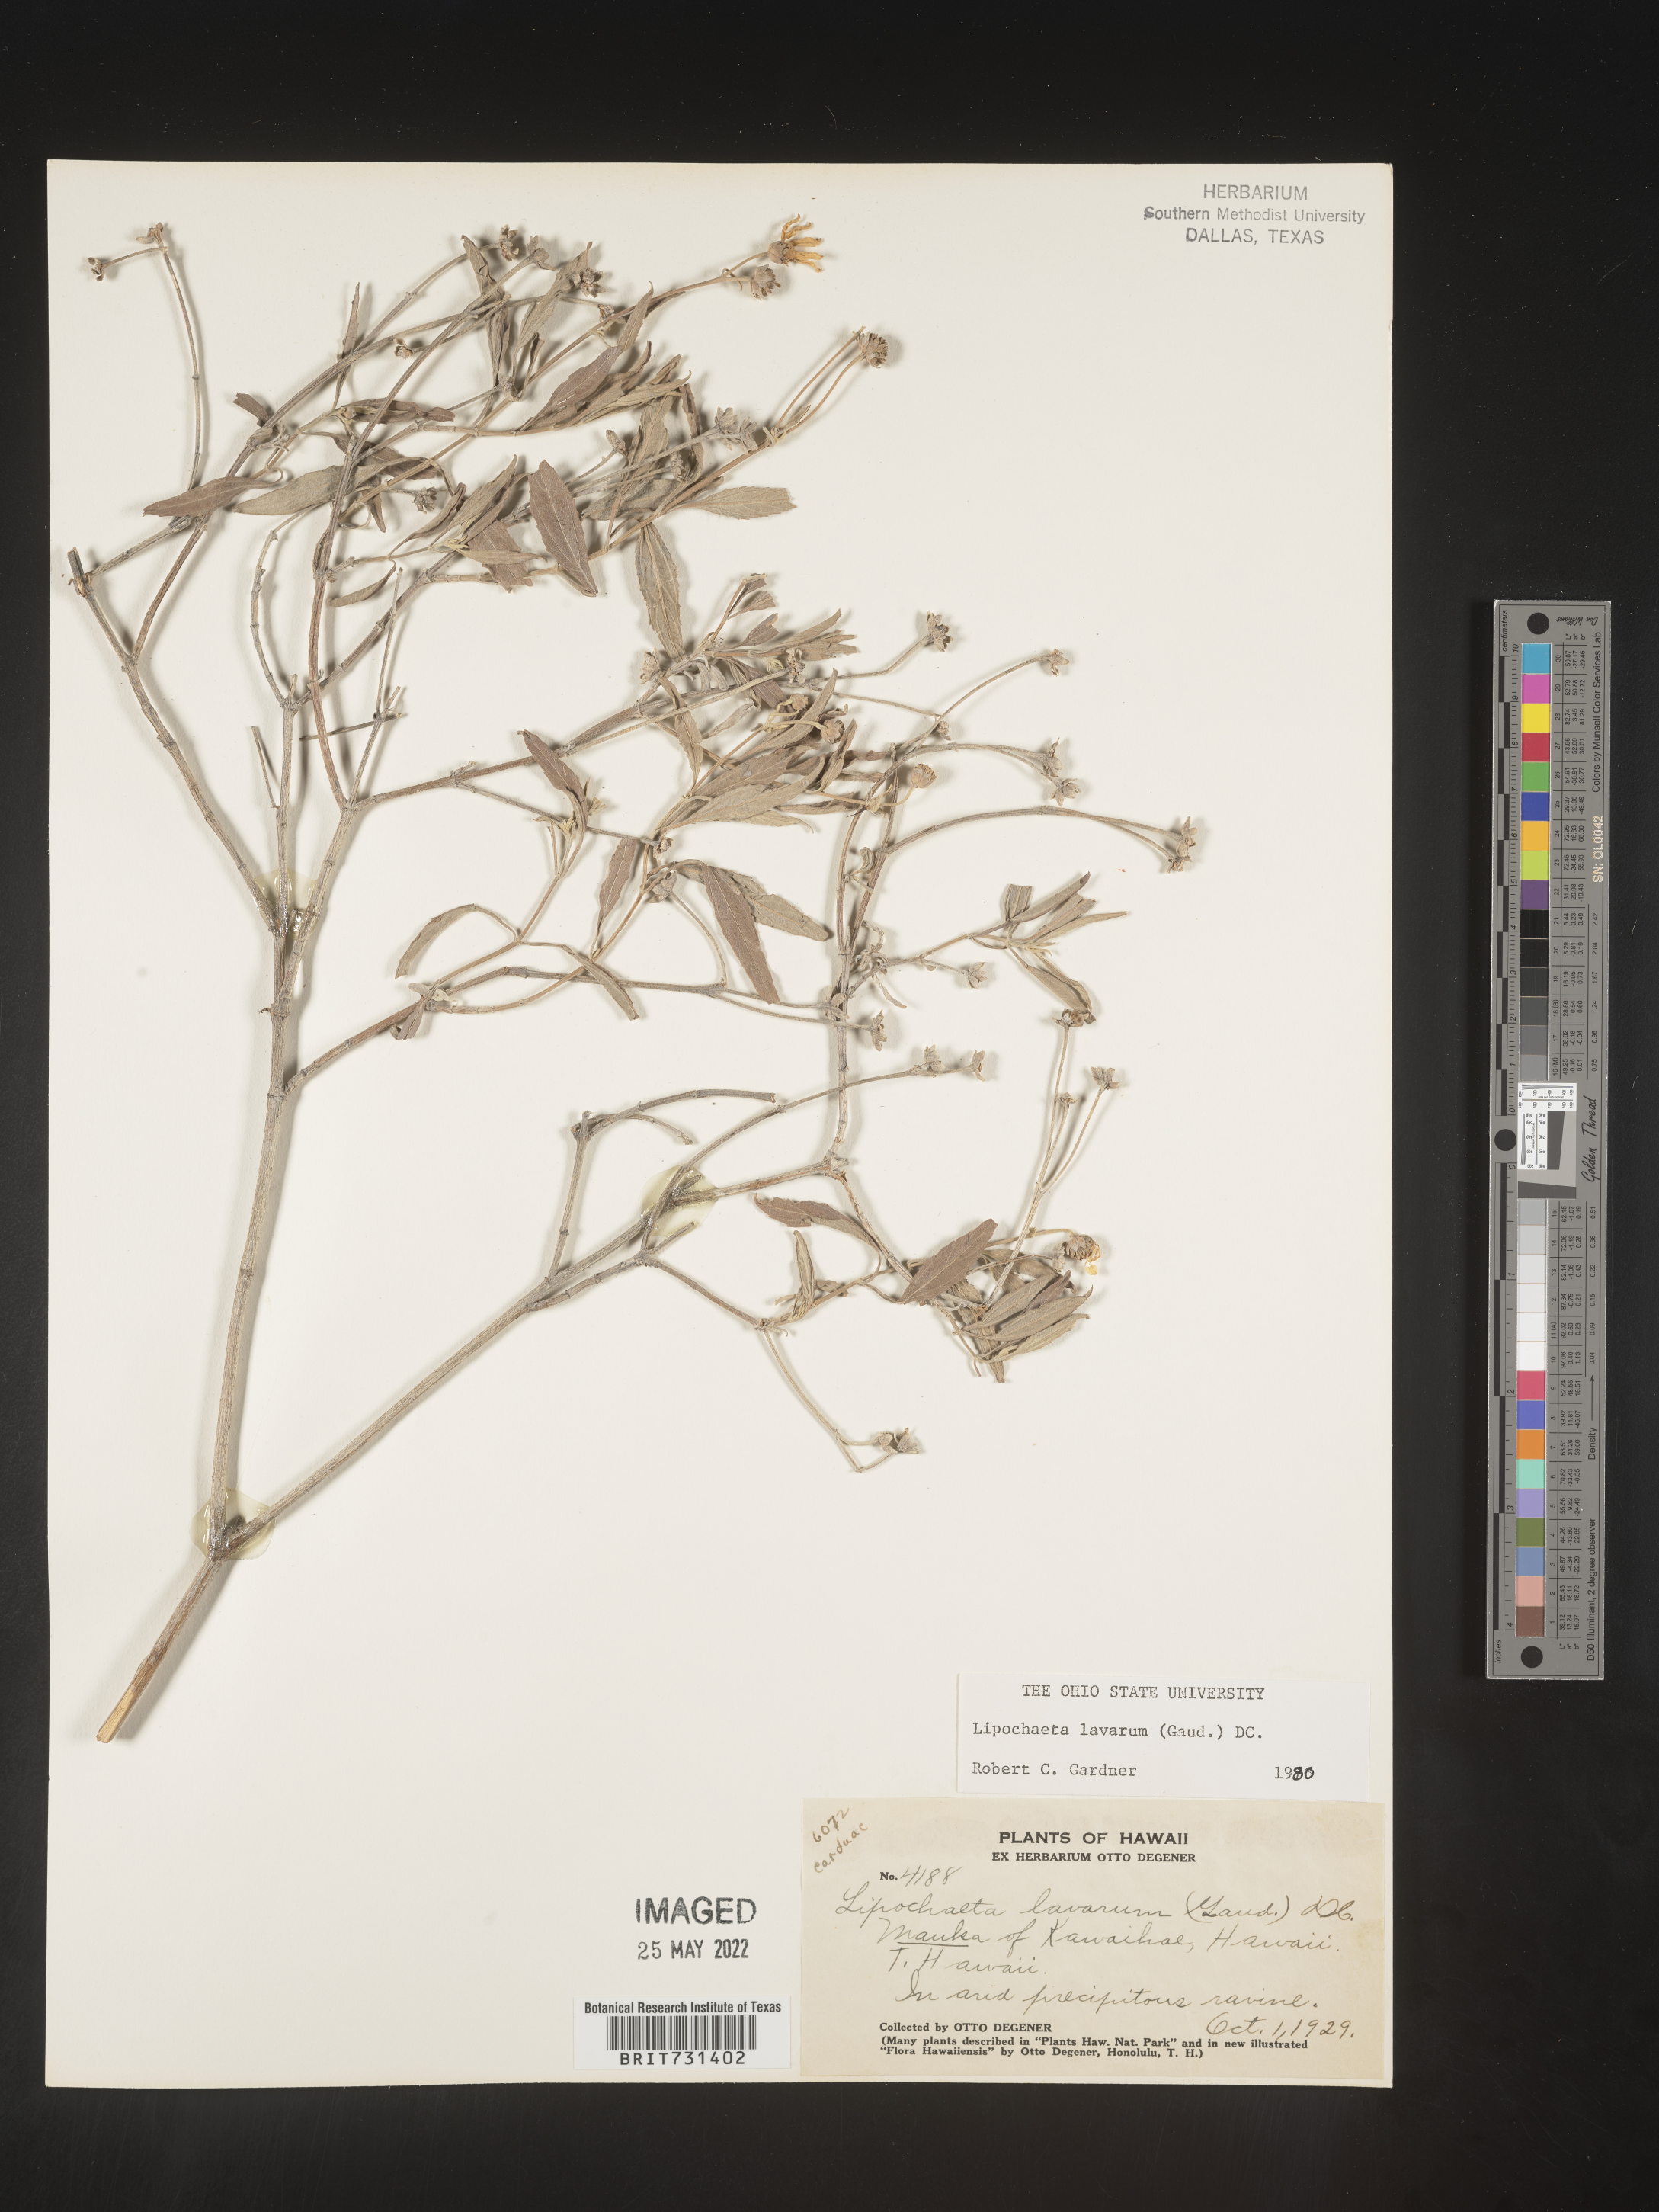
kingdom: Plantae
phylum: Tracheophyta
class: Magnoliopsida
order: Asterales
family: Asteraceae
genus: Lipochaeta
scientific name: Lipochaeta
